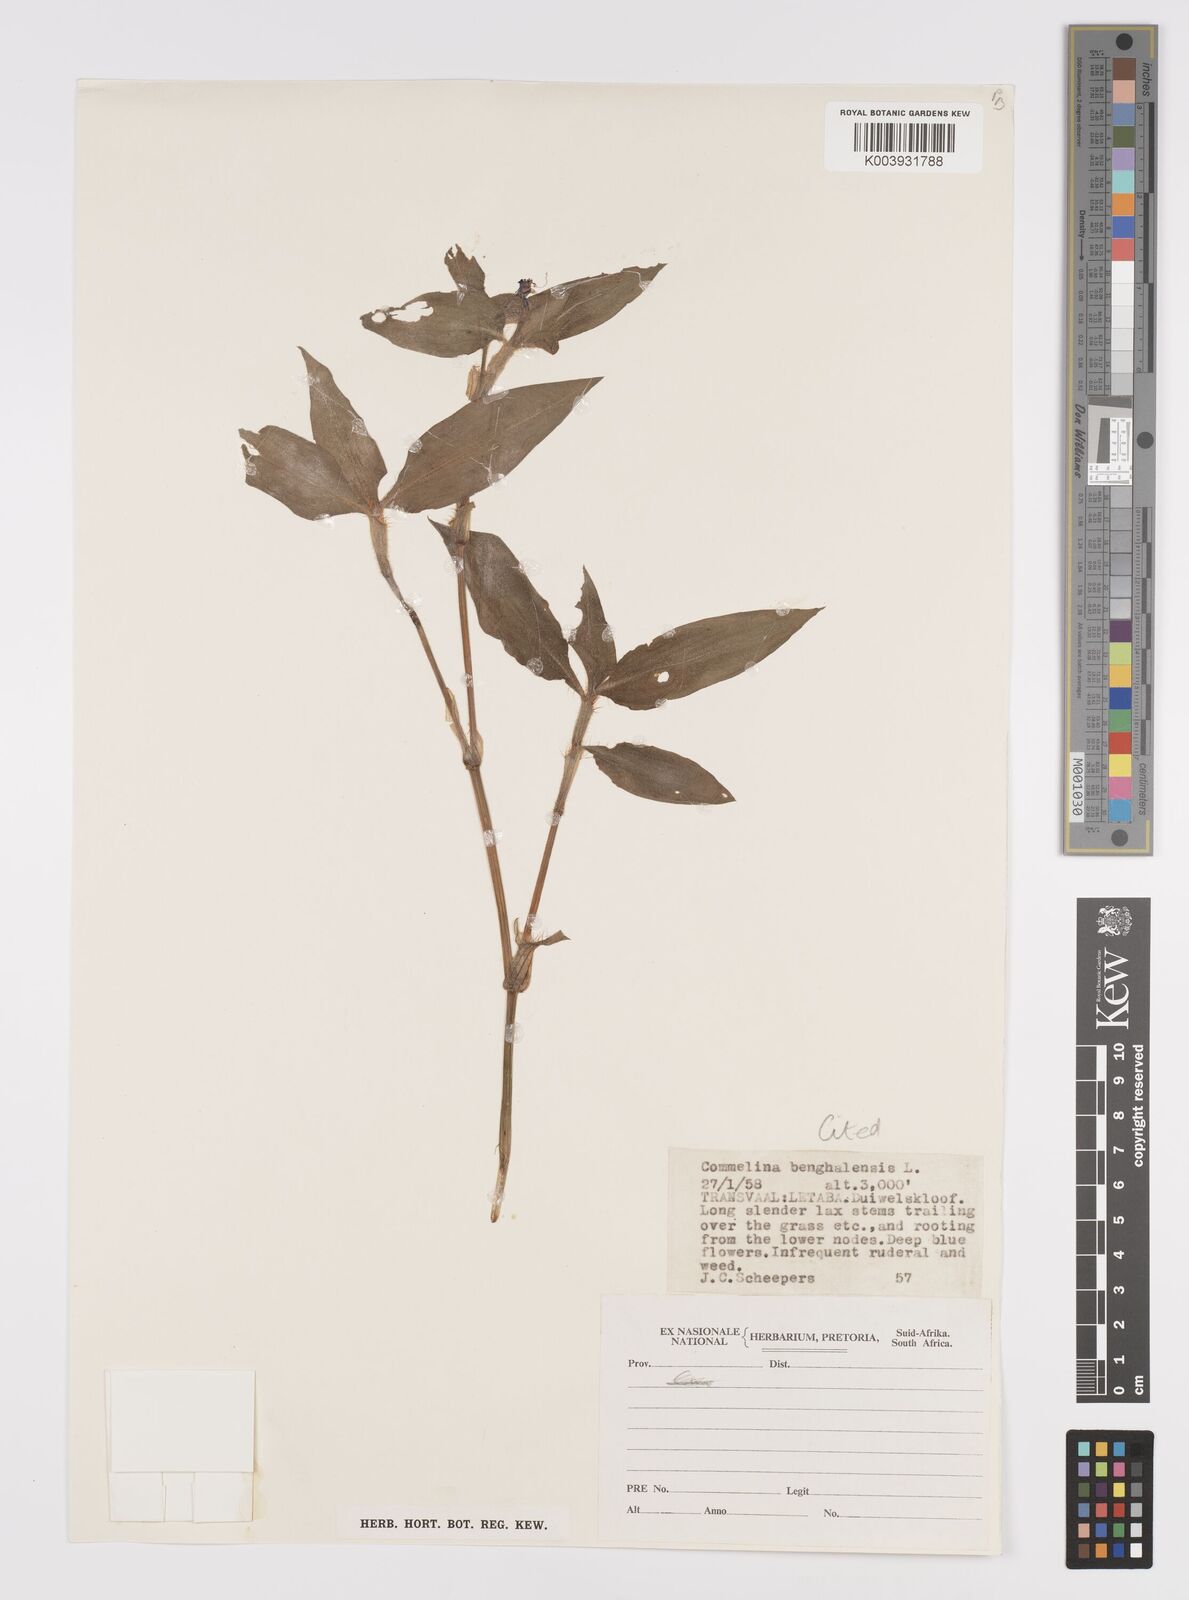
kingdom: Plantae
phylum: Tracheophyta
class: Liliopsida
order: Commelinales
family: Commelinaceae
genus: Commelina
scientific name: Commelina benghalensis
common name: Jio
